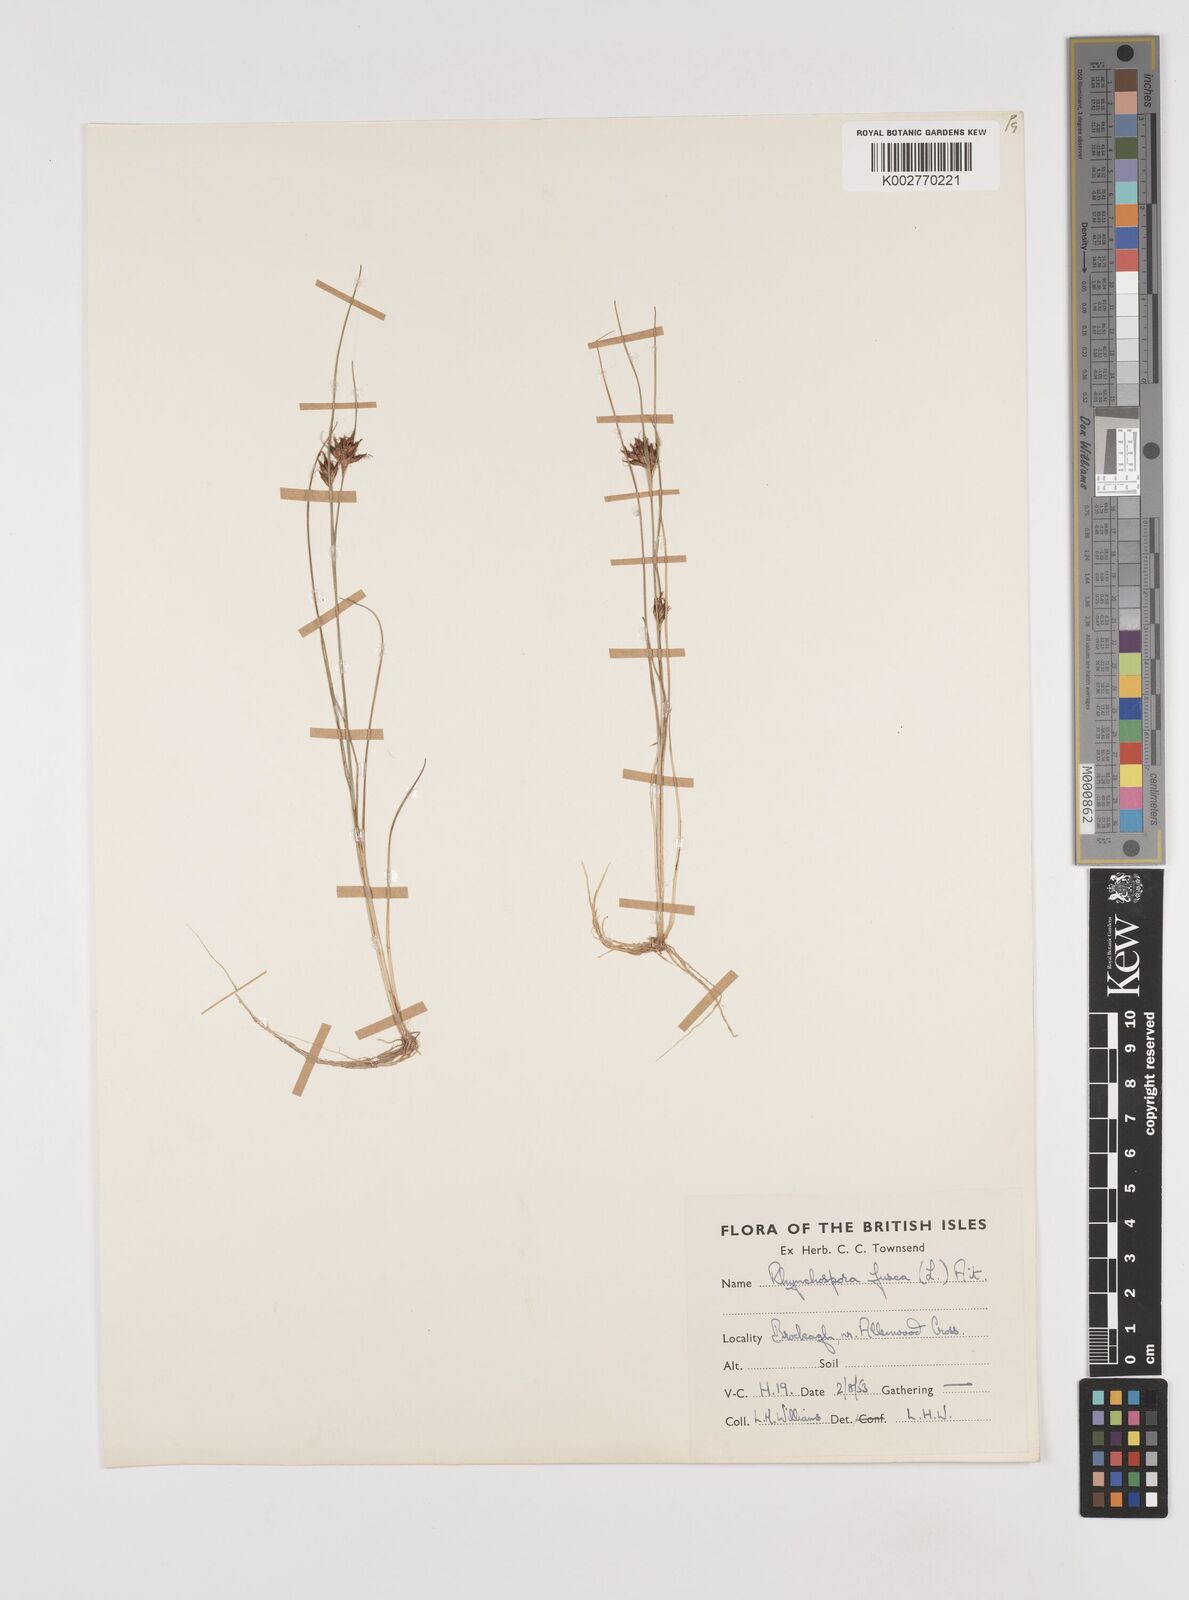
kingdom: Plantae
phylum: Tracheophyta
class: Liliopsida
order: Poales
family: Cyperaceae
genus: Rhynchospora
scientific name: Rhynchospora fusca
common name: Brown beak-sedge
